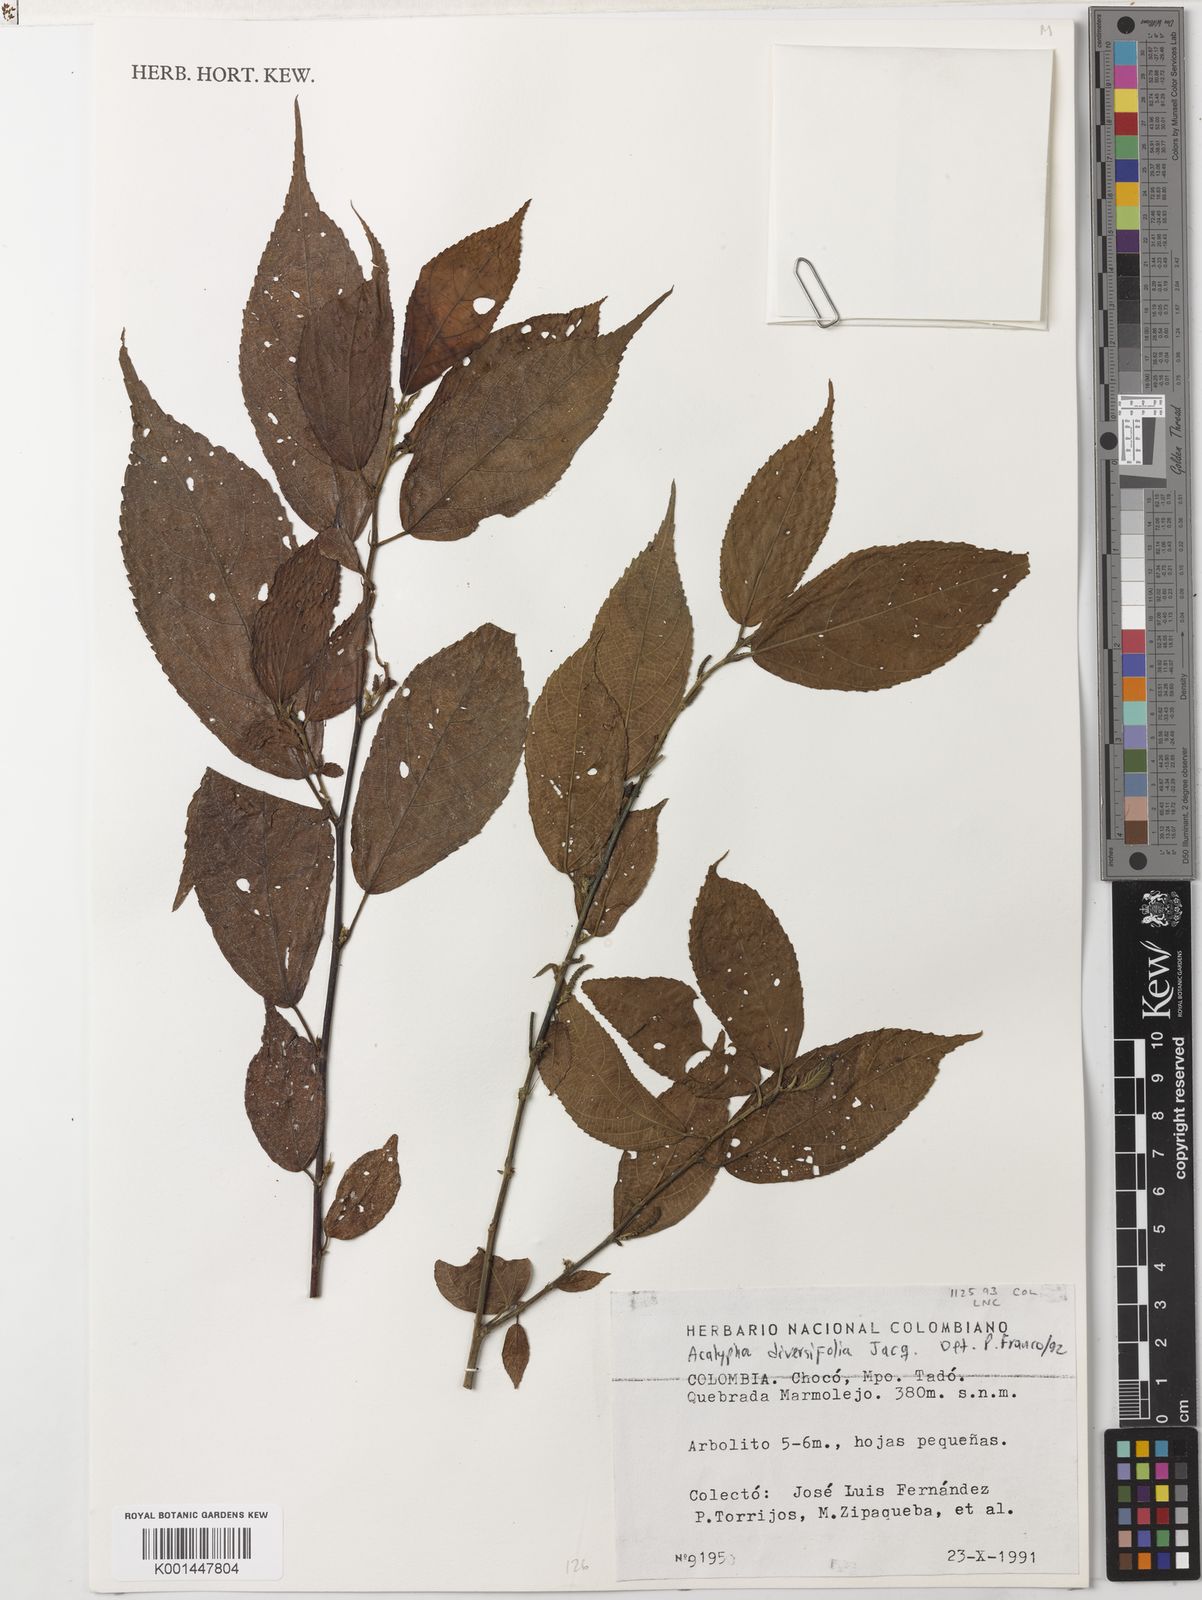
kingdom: Plantae
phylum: Tracheophyta
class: Magnoliopsida
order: Malpighiales
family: Euphorbiaceae
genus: Acalypha
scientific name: Acalypha diversifolia
